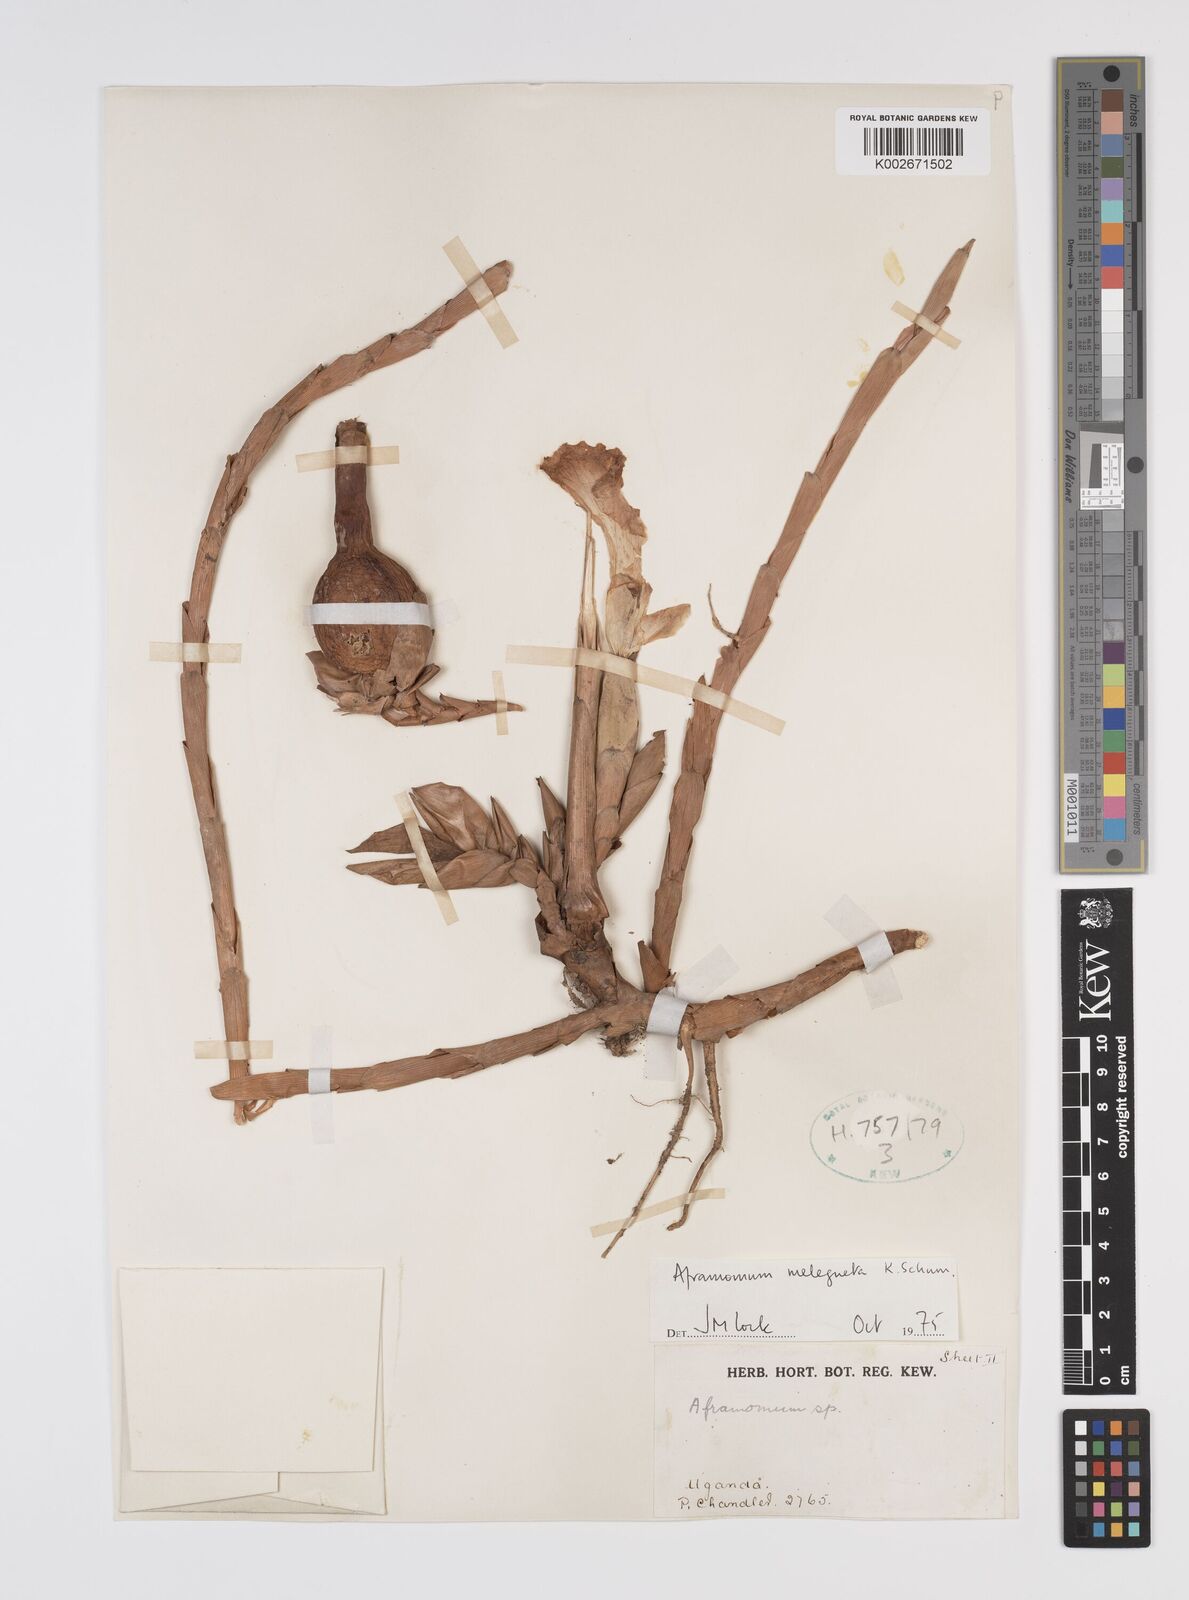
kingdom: Plantae
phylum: Tracheophyta
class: Liliopsida
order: Zingiberales
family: Zingiberaceae
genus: Aframomum
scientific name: Aframomum melegueta
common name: Grains of paradise
